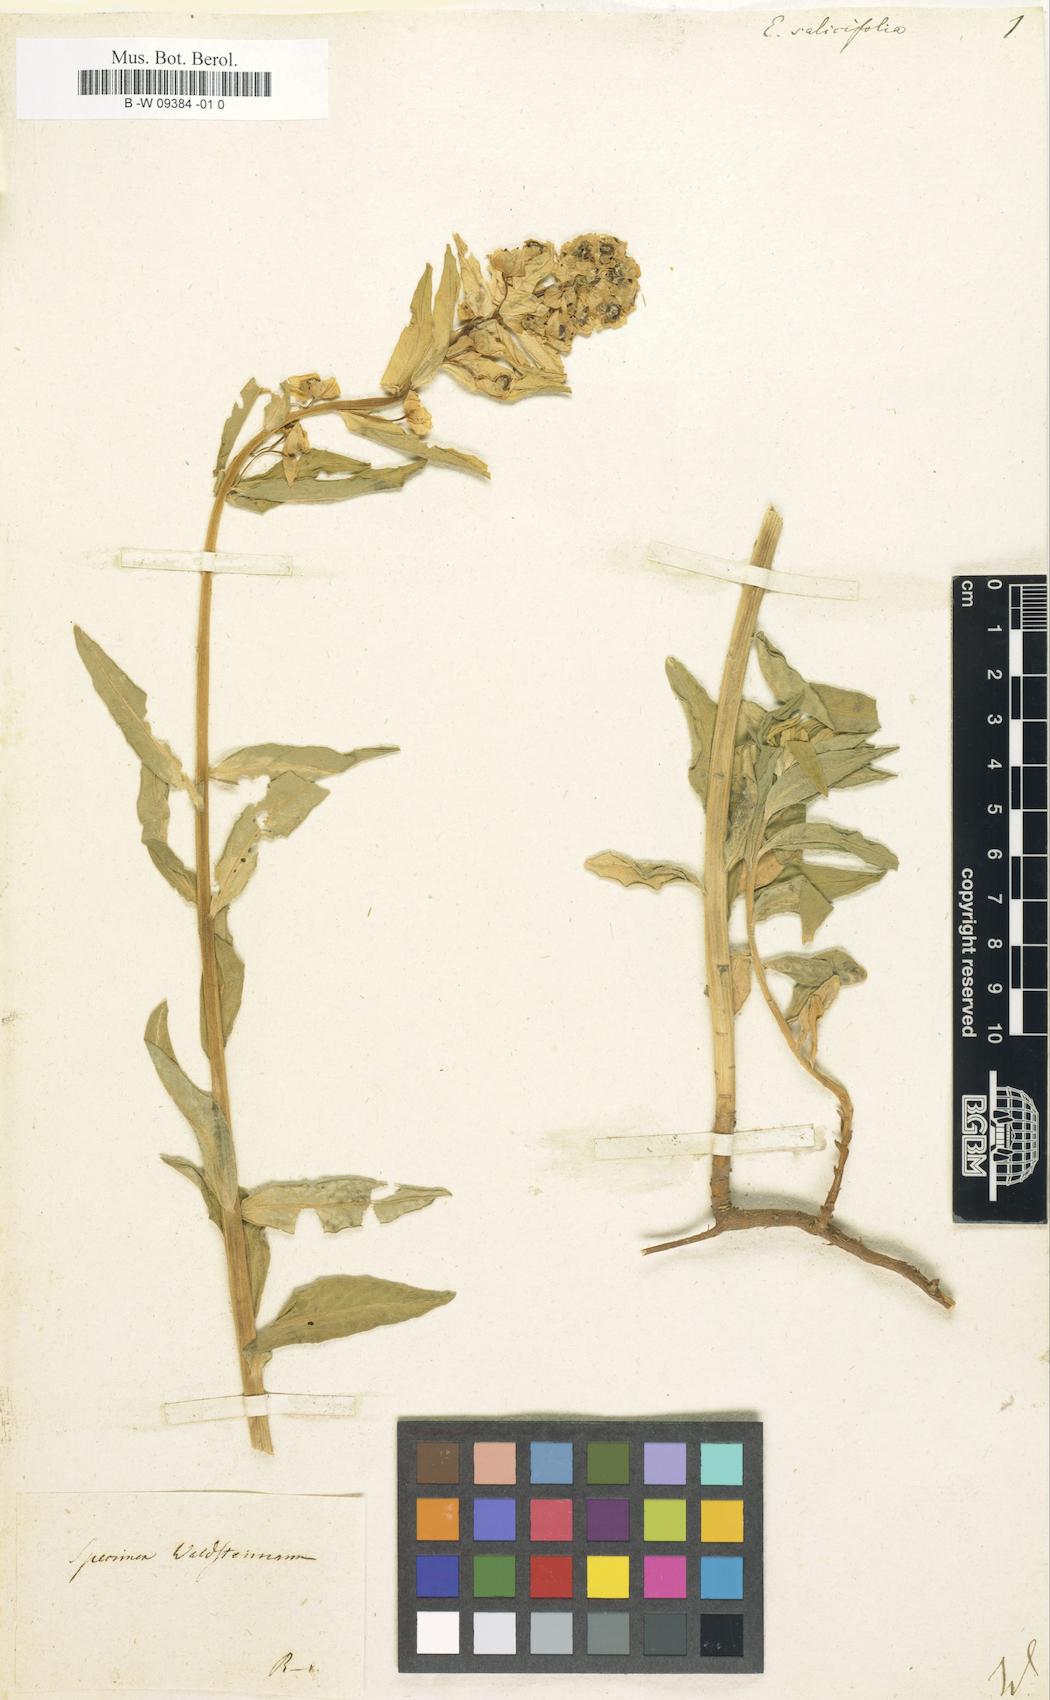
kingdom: Plantae
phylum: Tracheophyta
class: Magnoliopsida
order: Malpighiales
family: Euphorbiaceae
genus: Euphorbia
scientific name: Euphorbia salicifolia
